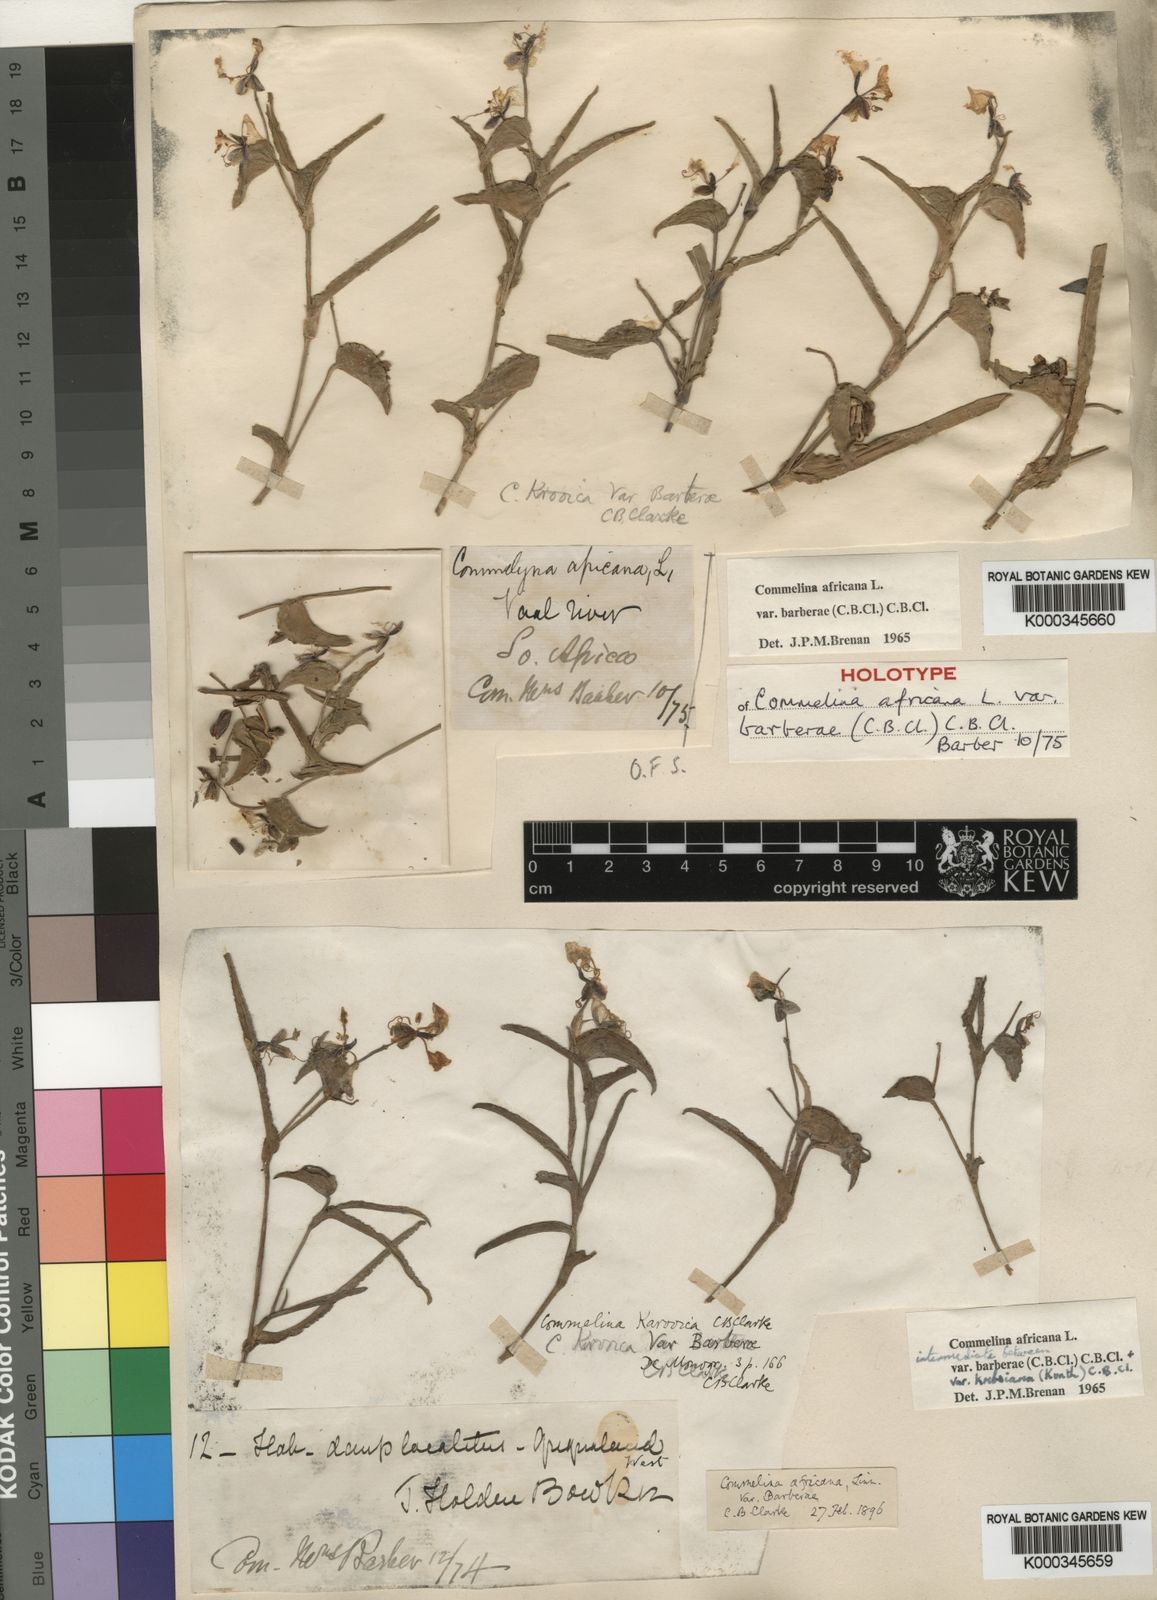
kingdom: Plantae
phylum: Tracheophyta
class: Liliopsida
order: Commelinales
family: Commelinaceae
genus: Commelina
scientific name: Commelina africana
